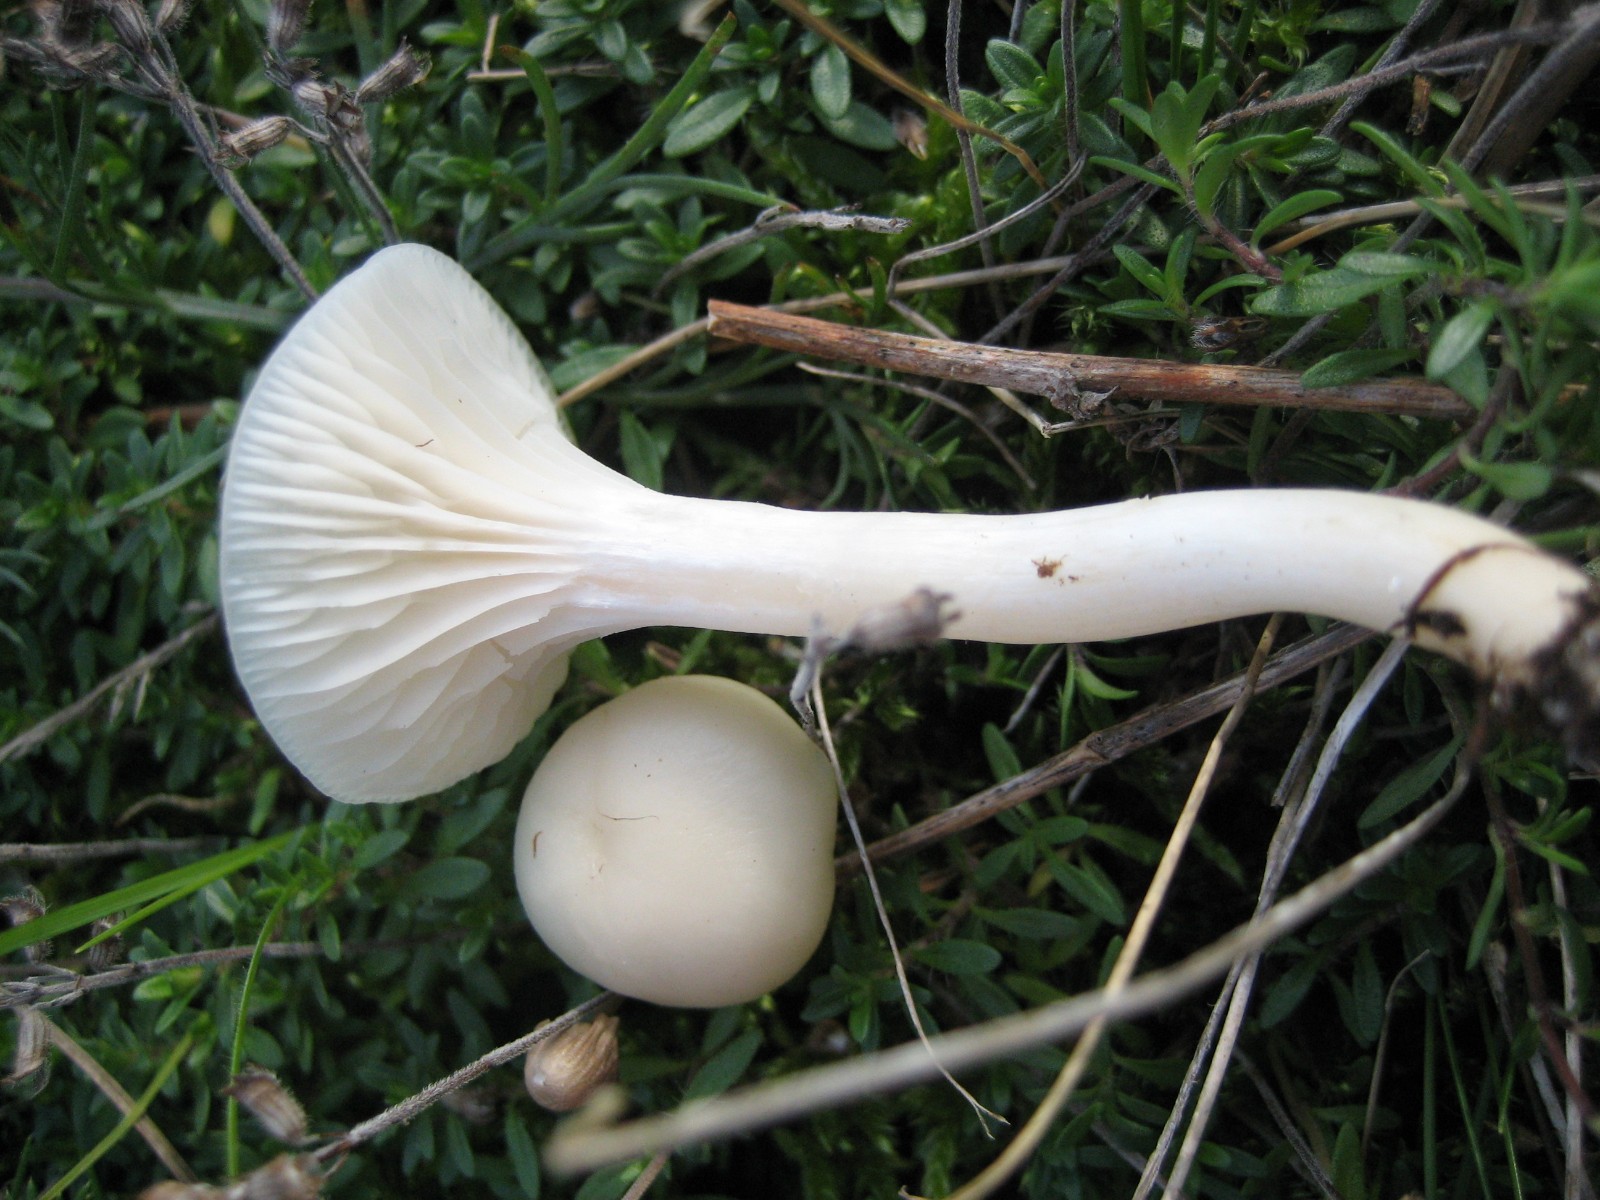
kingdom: Fungi
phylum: Basidiomycota
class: Agaricomycetes
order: Agaricales
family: Hygrophoraceae
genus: Cuphophyllus
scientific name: Cuphophyllus virgineus
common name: snehvid vokshat
